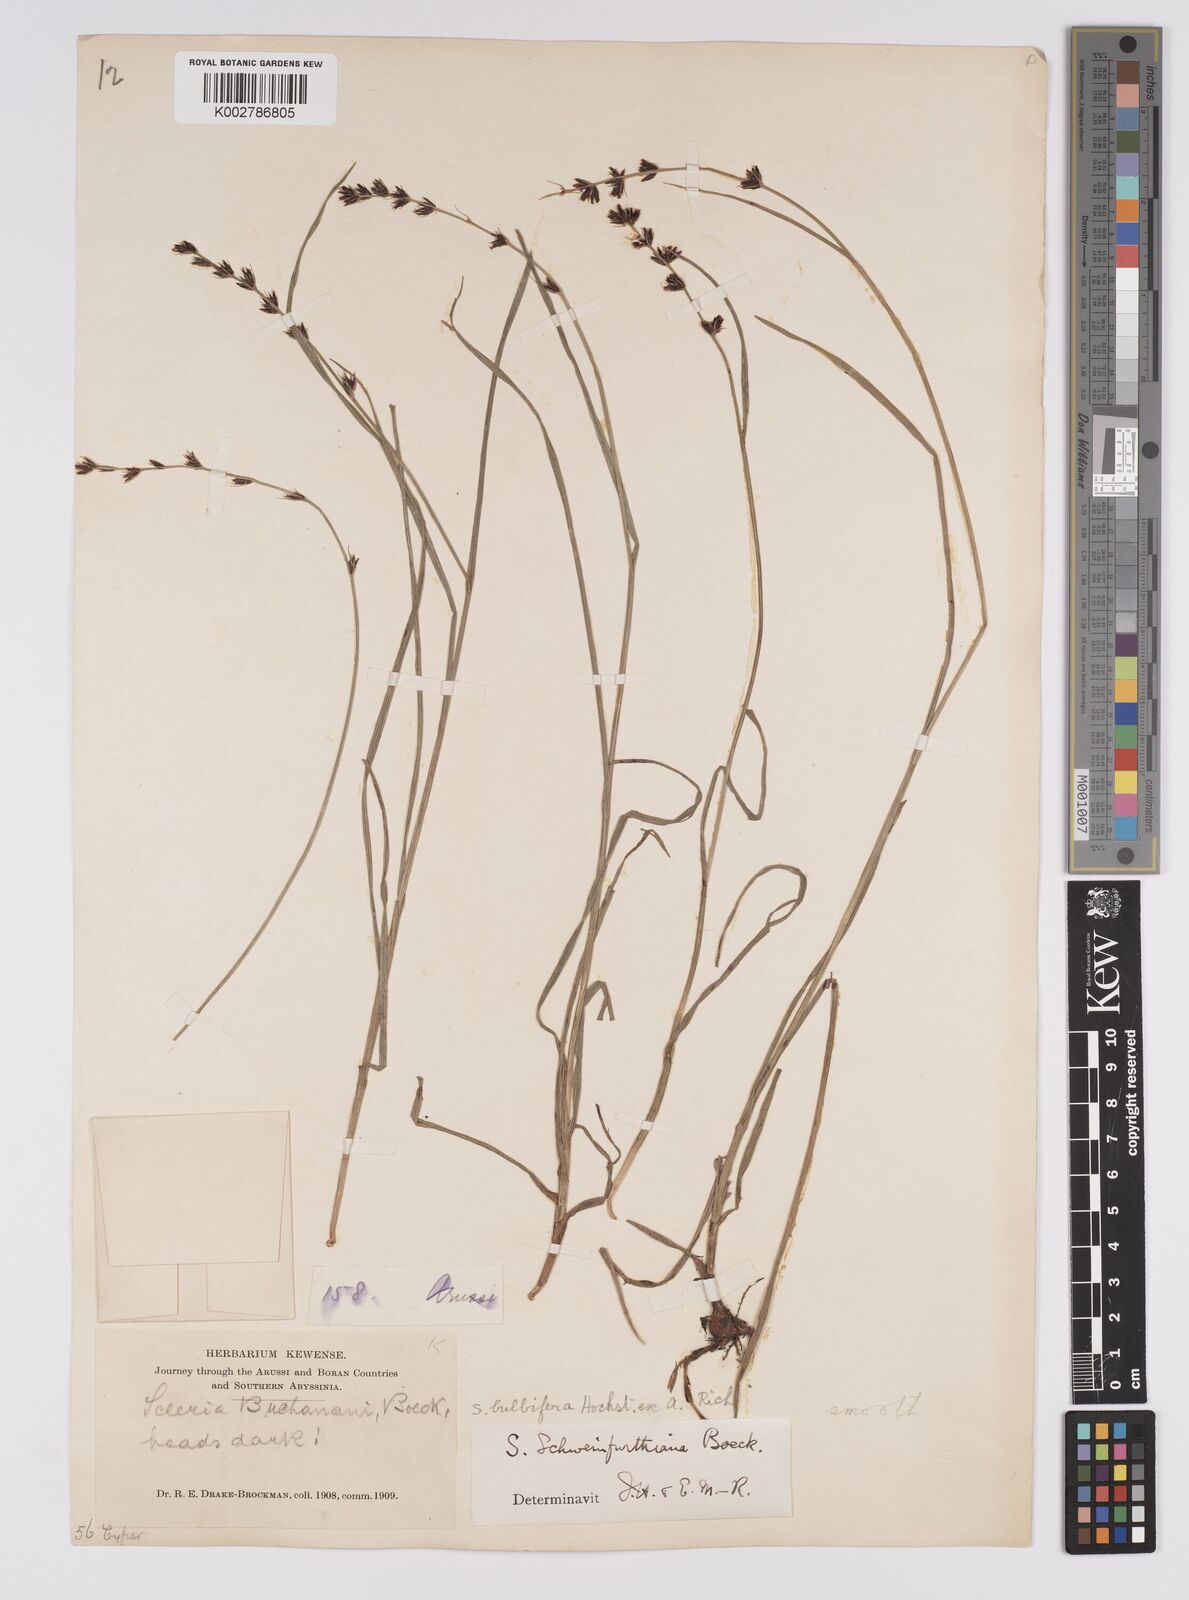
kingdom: Plantae
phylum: Tracheophyta
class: Liliopsida
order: Poales
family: Cyperaceae
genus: Scleria
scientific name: Scleria bulbifera
